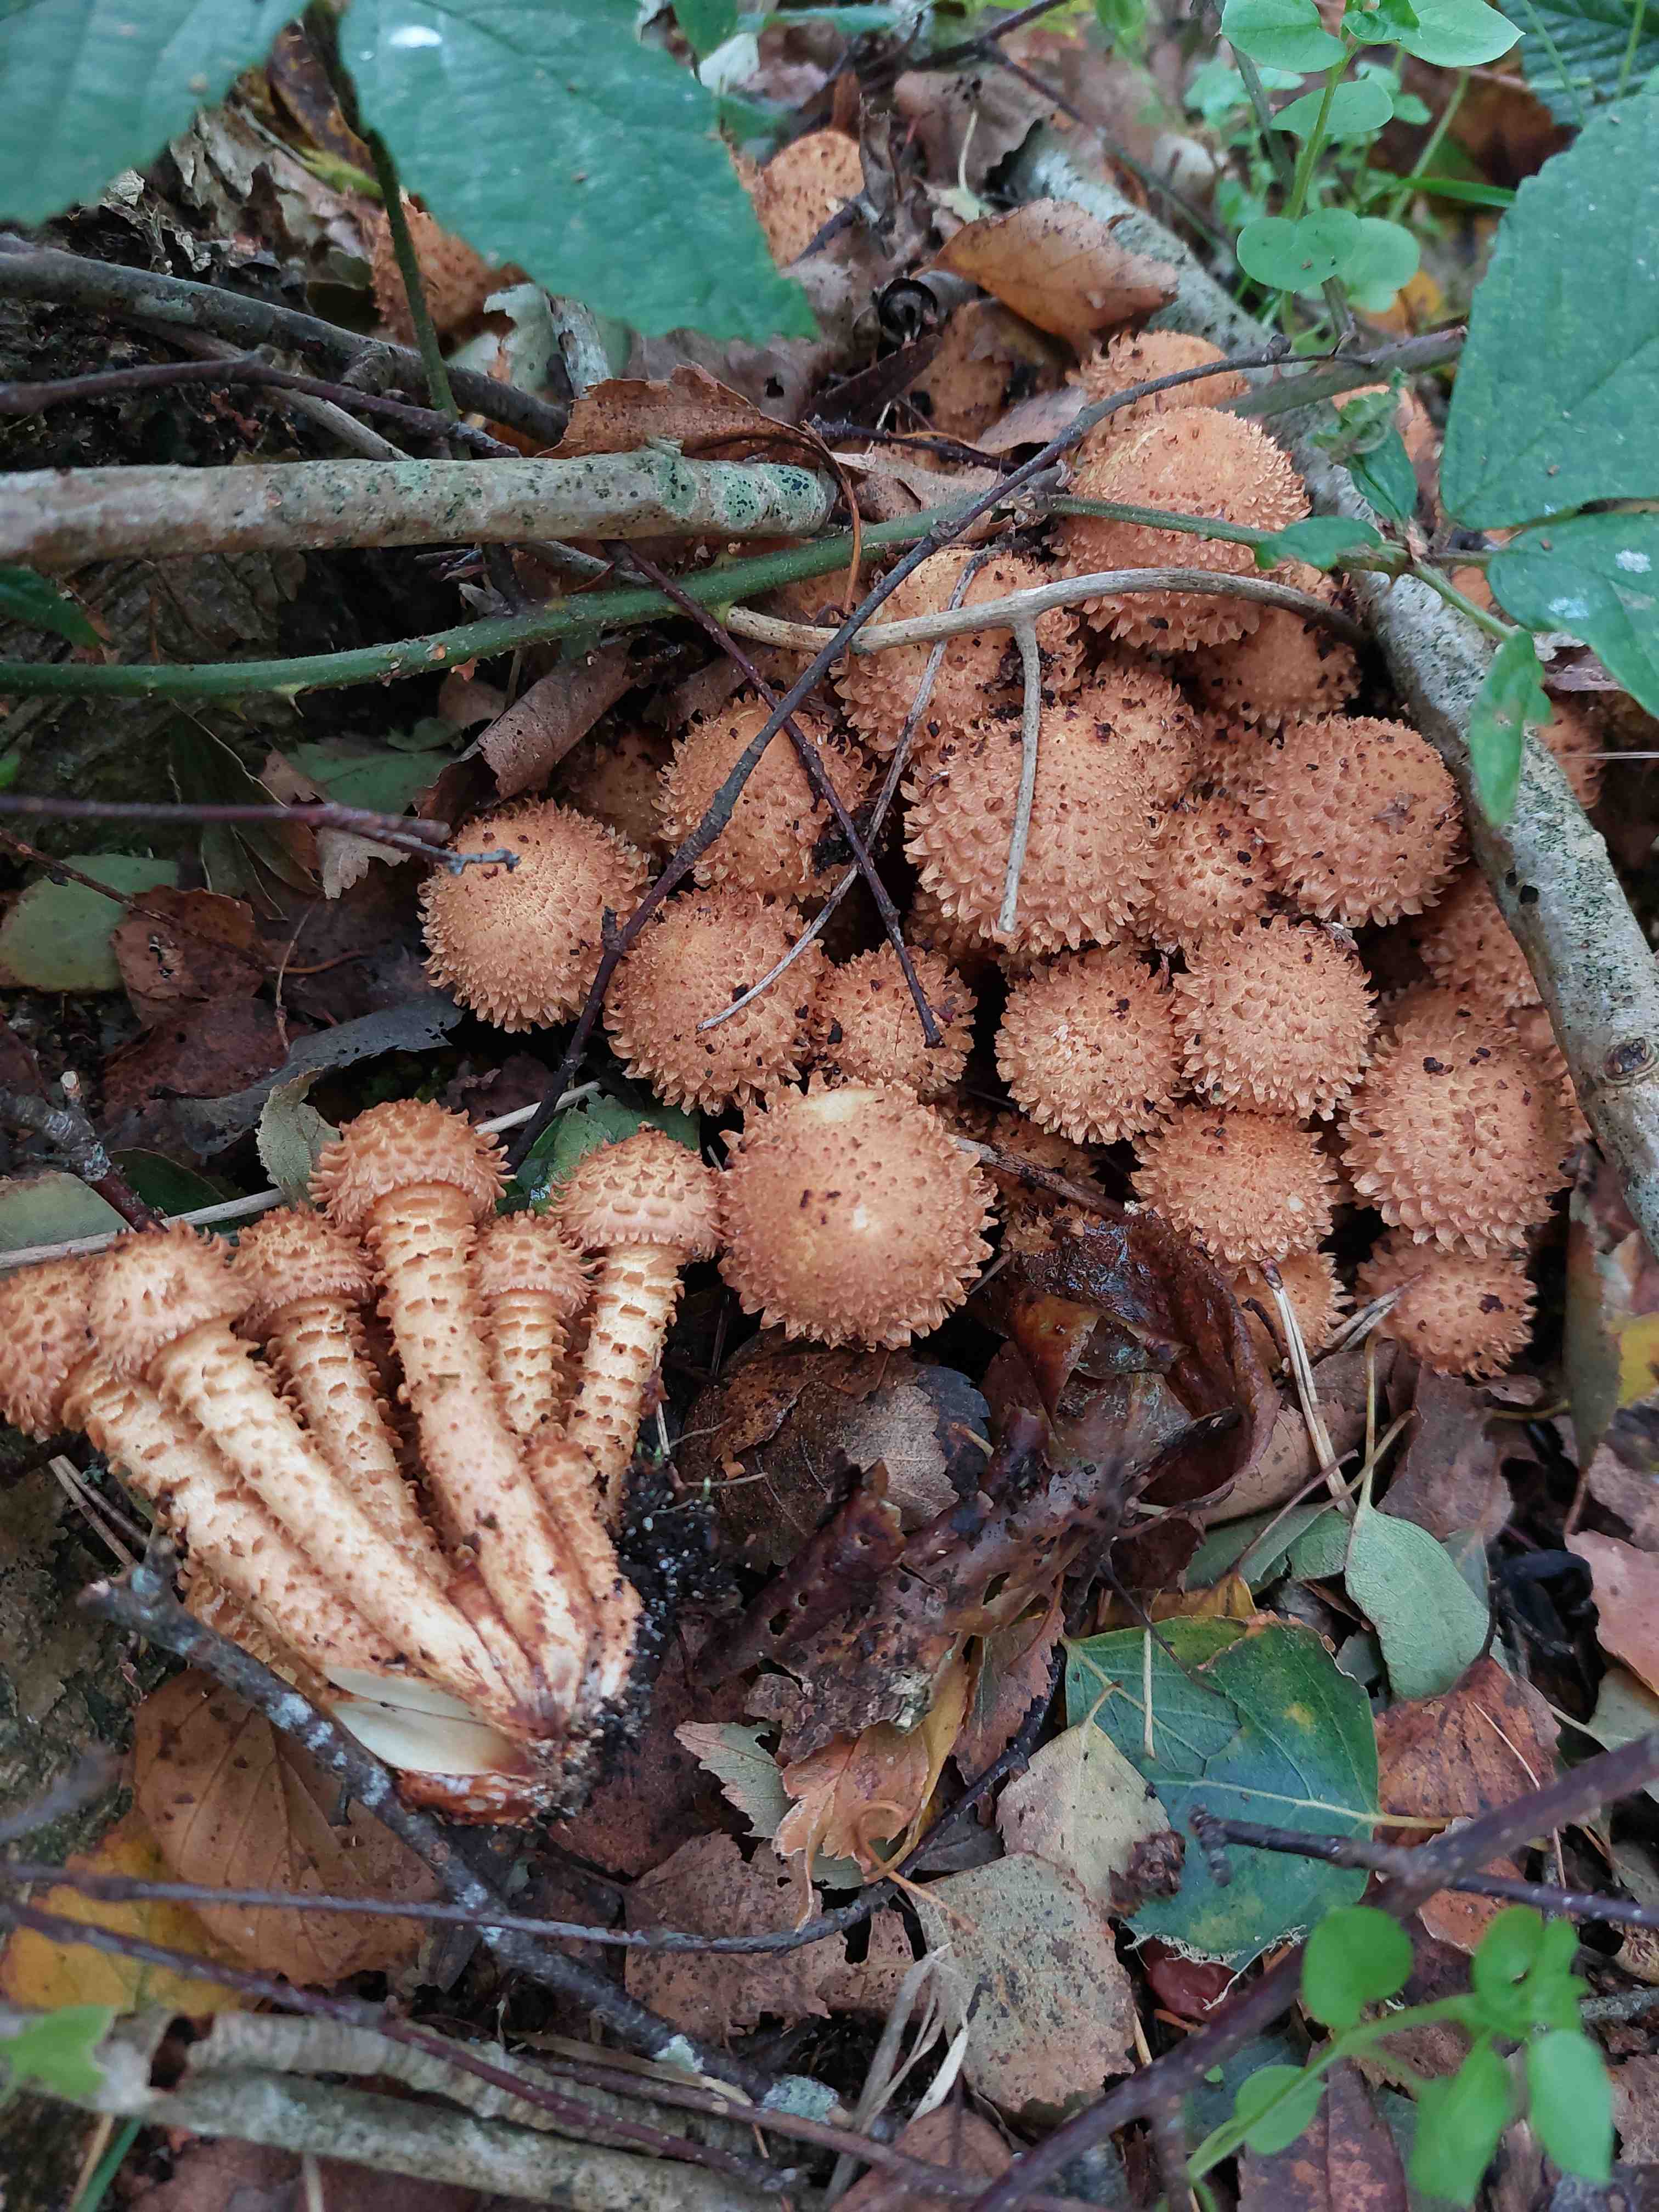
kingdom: Fungi
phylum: Basidiomycota
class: Agaricomycetes
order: Agaricales
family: Strophariaceae
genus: Pholiota
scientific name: Pholiota squarrosa
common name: krumskællet skælhat
